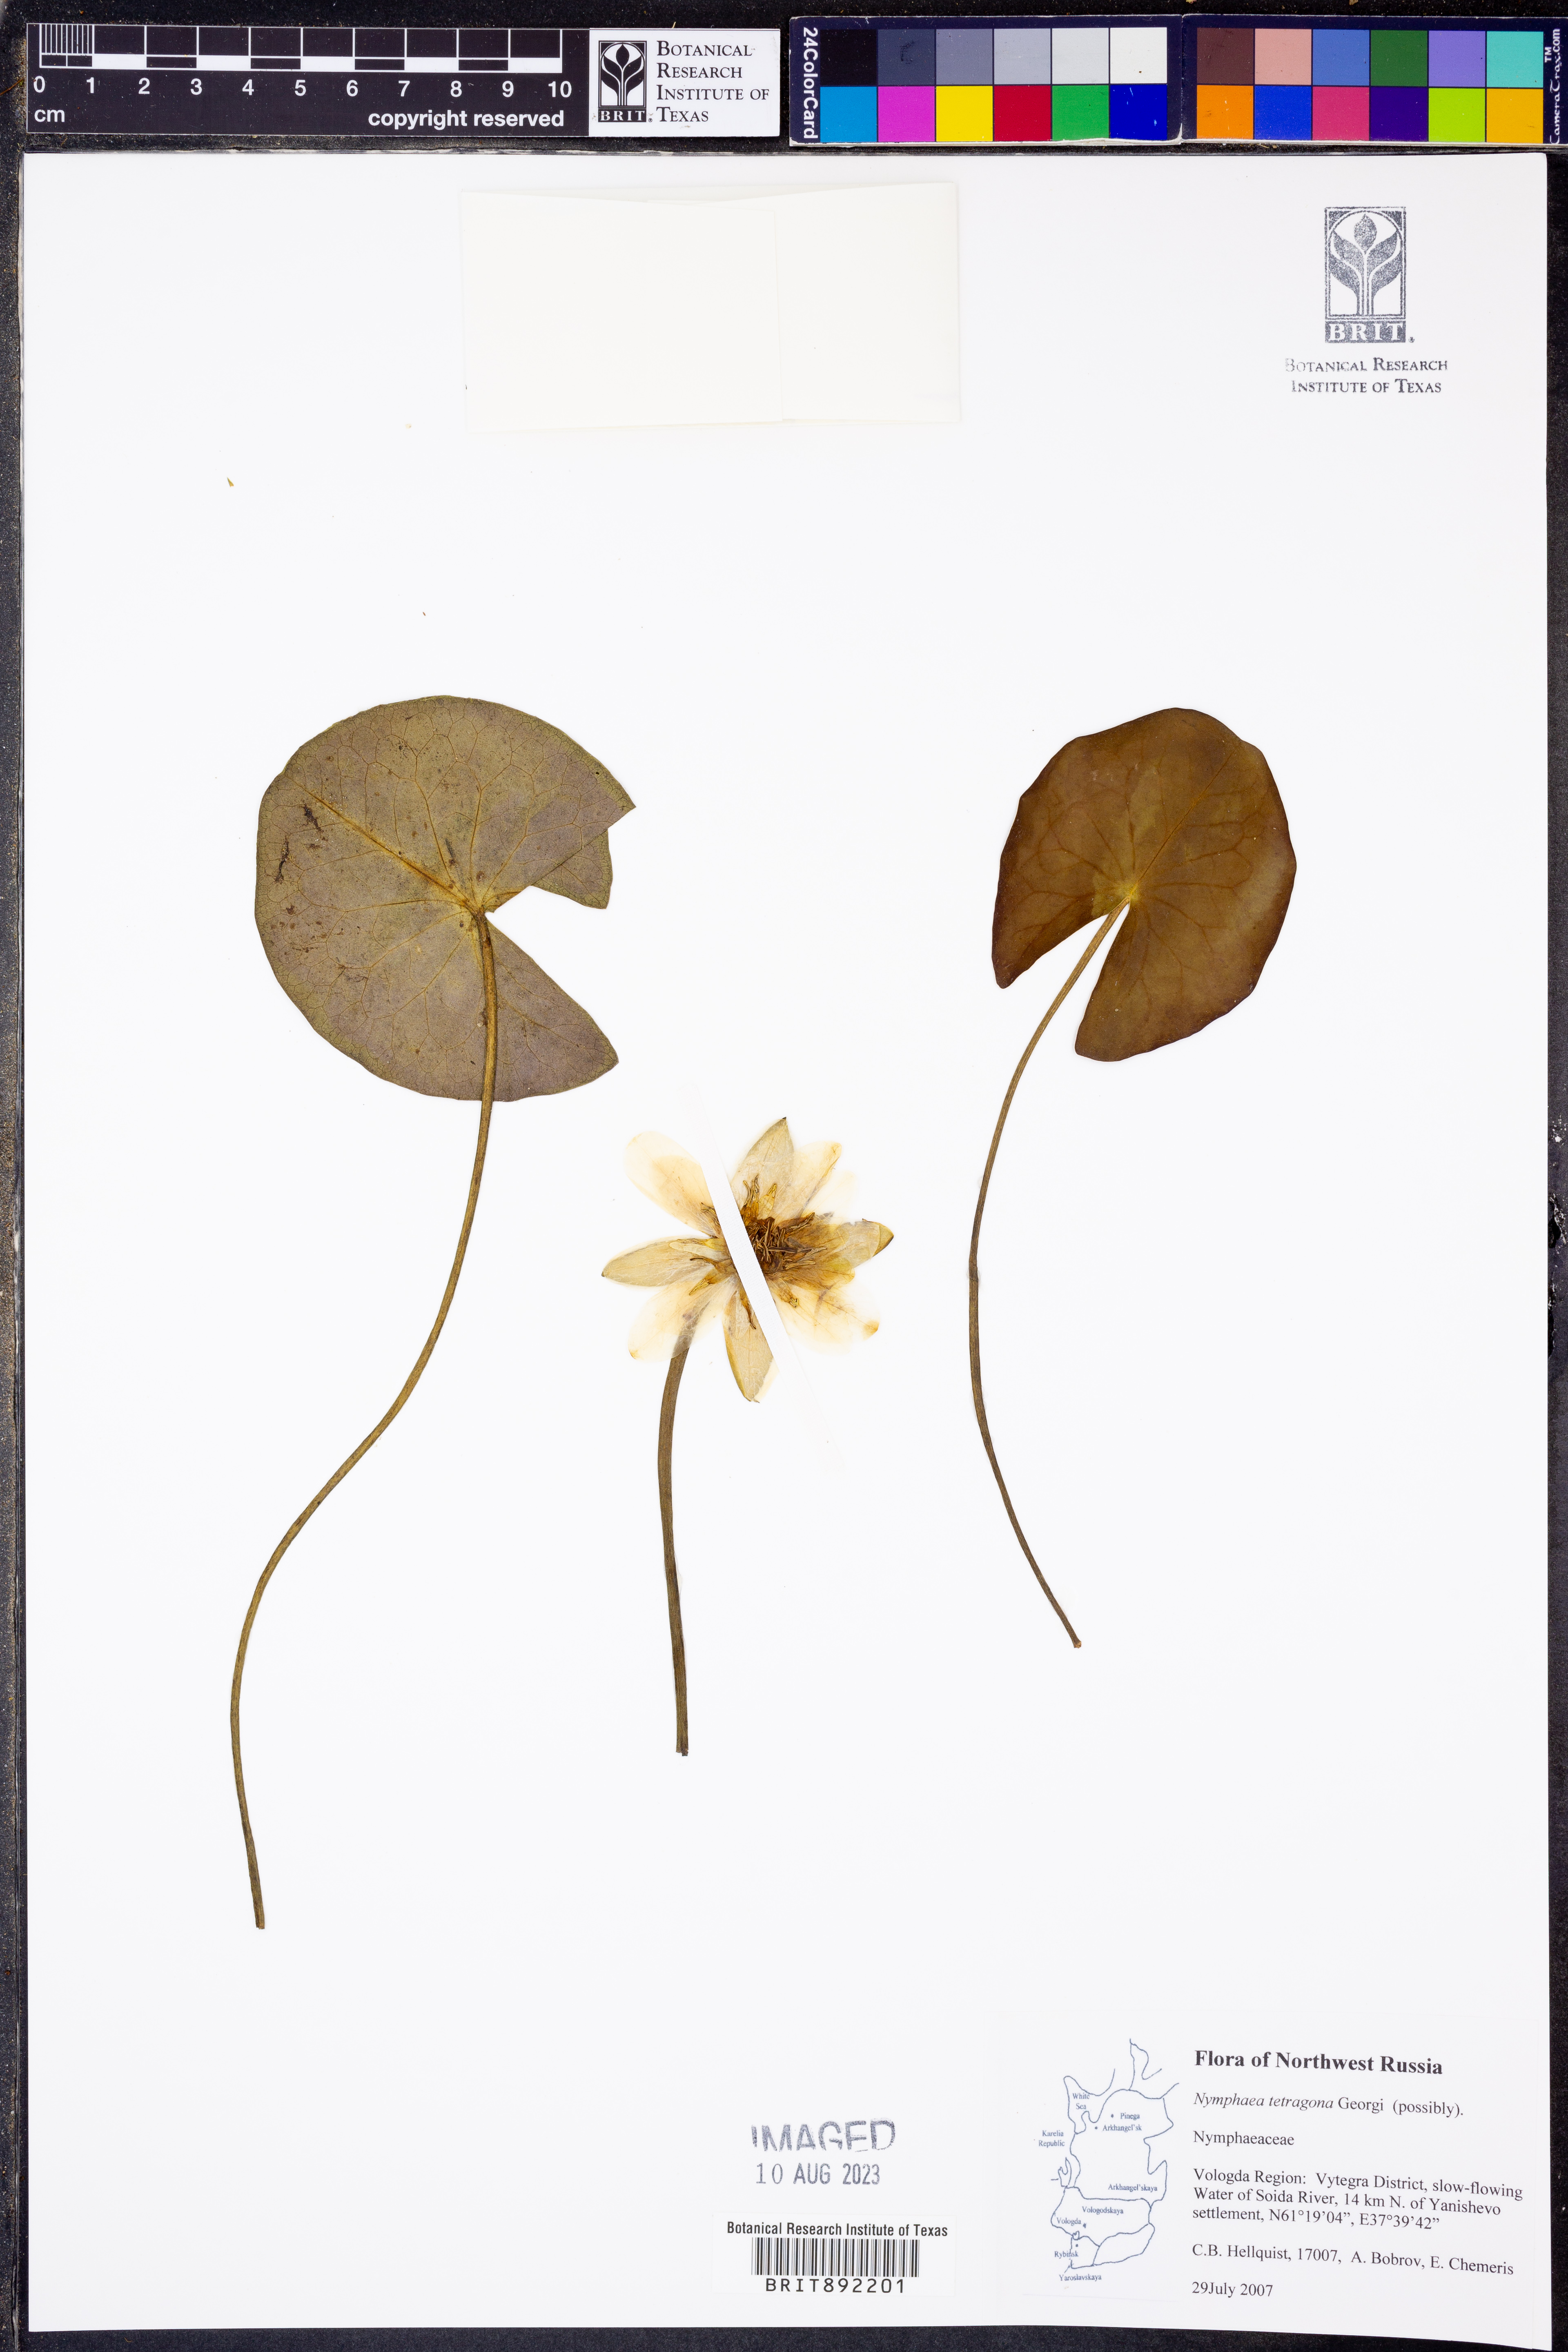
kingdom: Plantae
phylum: Tracheophyta
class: Magnoliopsida
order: Nymphaeales
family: Nymphaeaceae
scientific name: Nymphaeaceae
